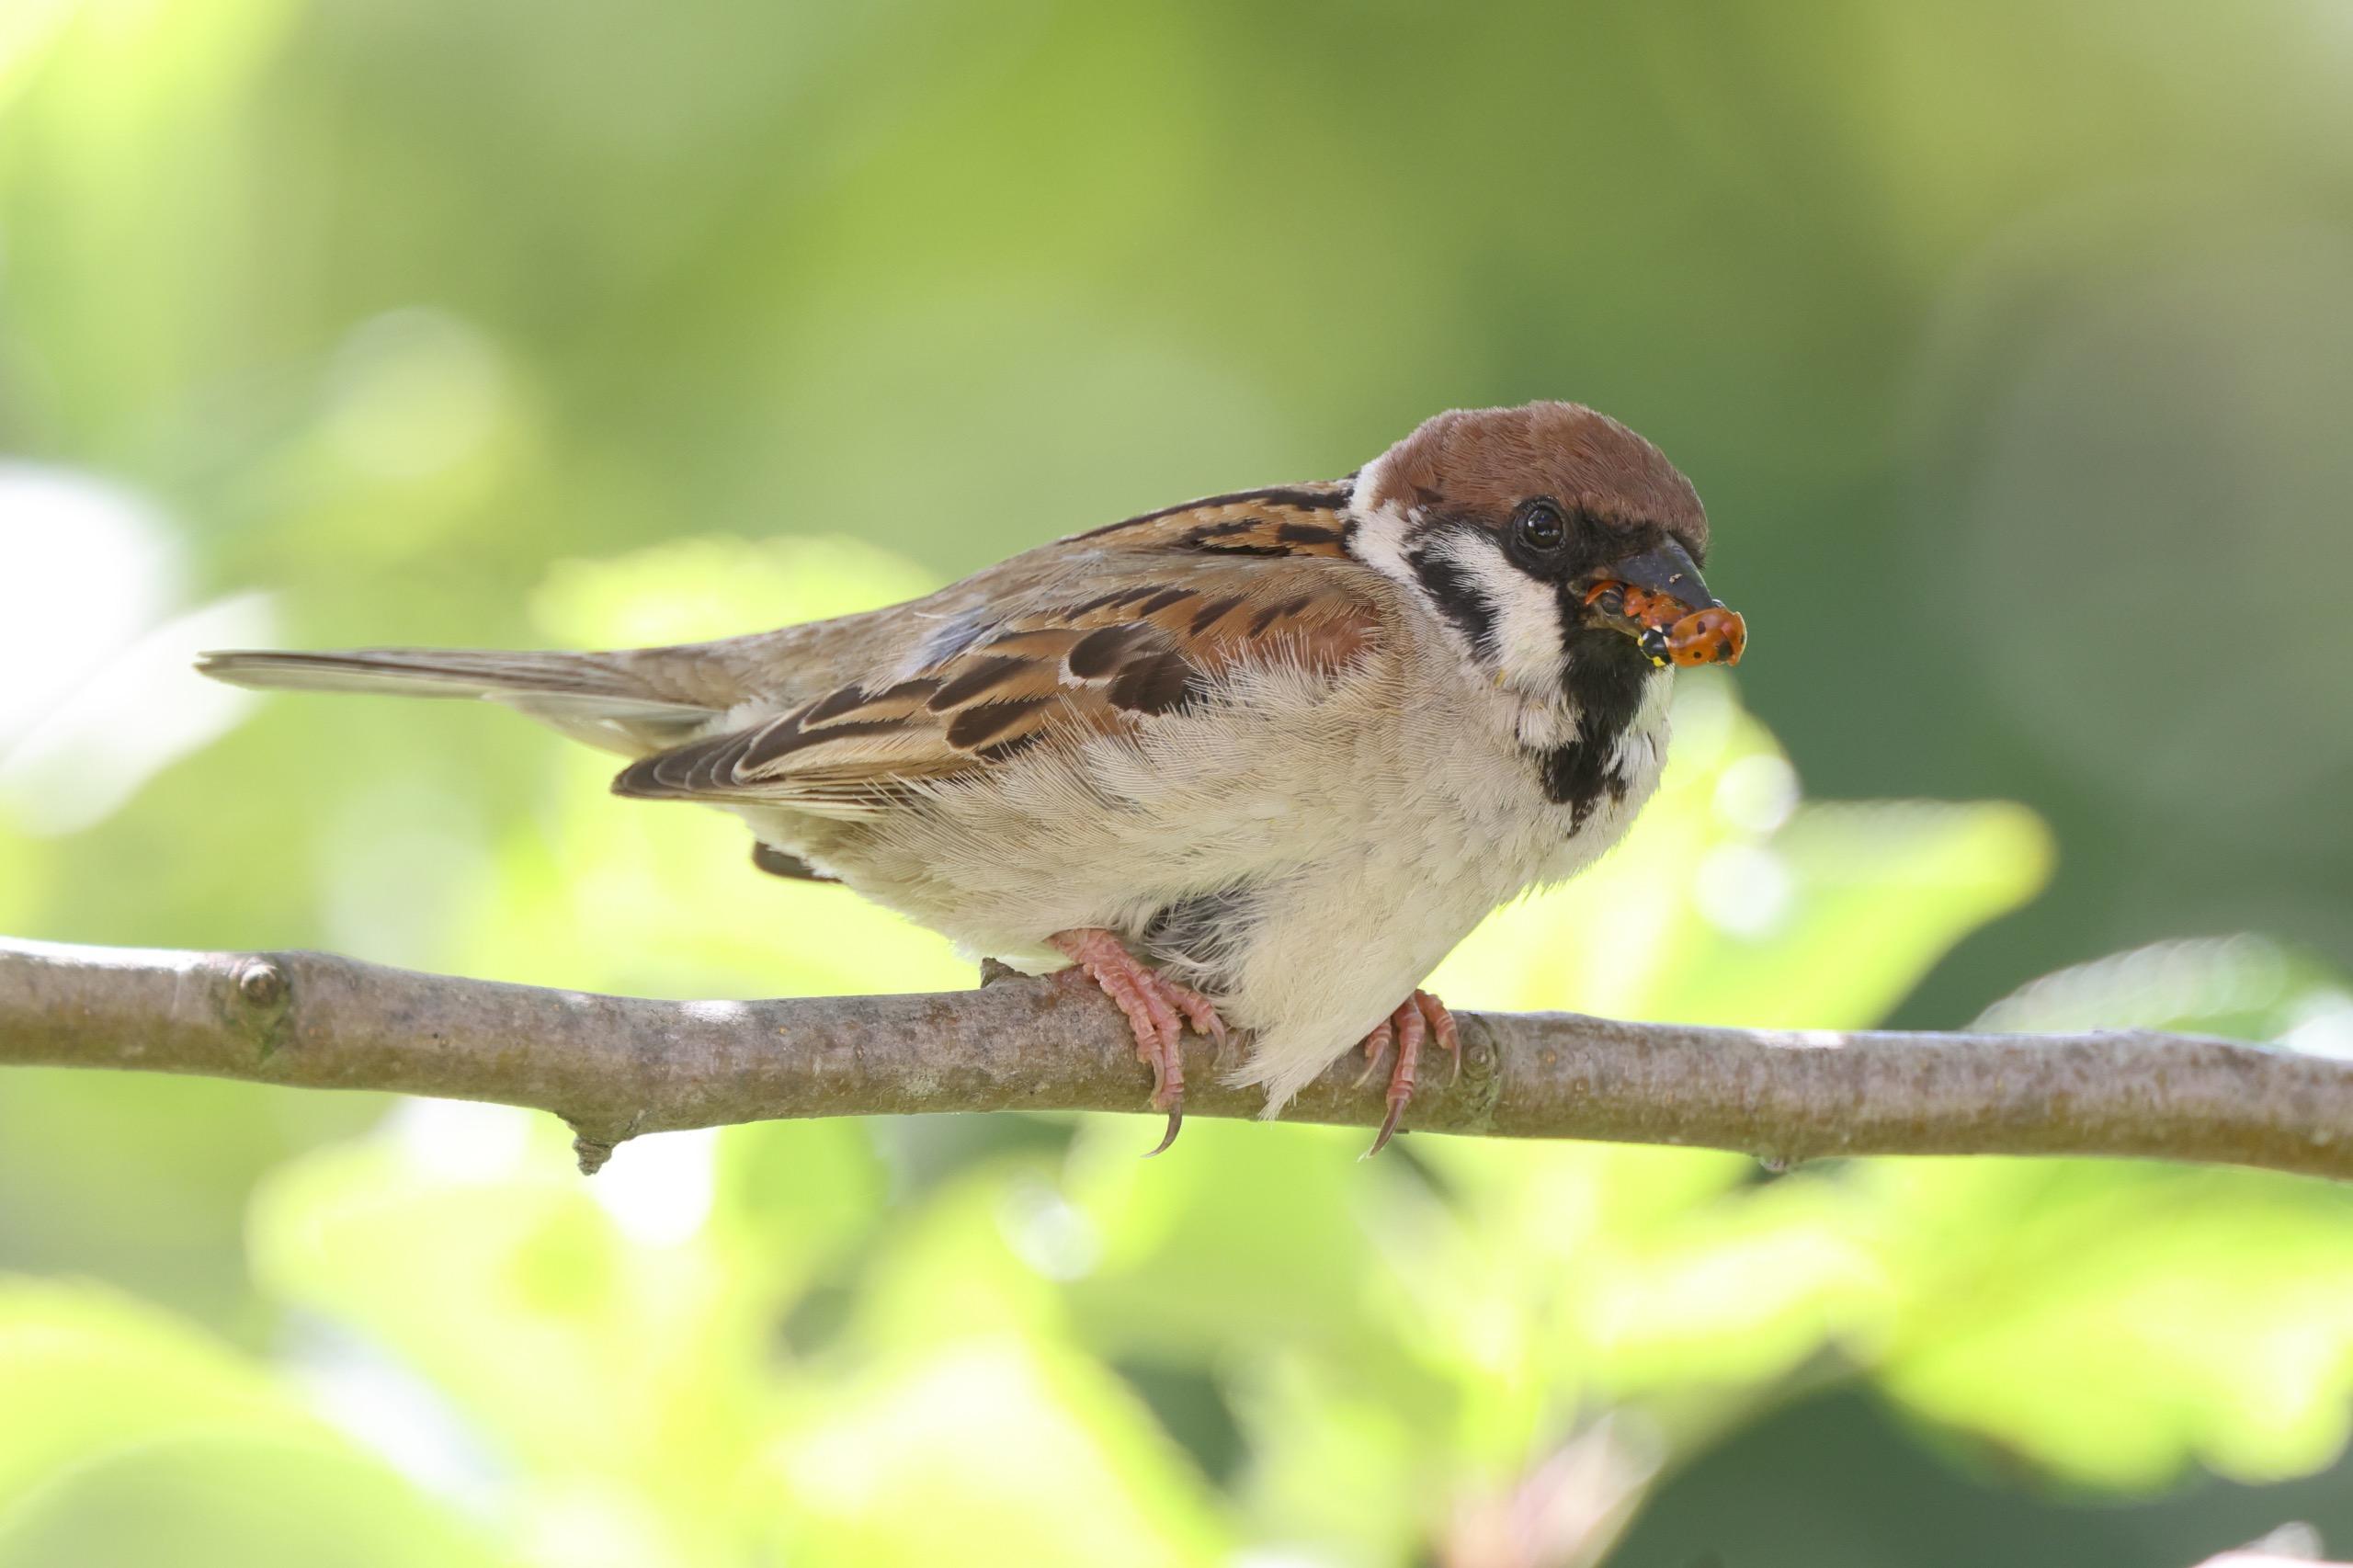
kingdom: Animalia
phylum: Chordata
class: Aves
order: Passeriformes
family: Passeridae
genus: Passer
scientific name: Passer montanus
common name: Skovspurv
